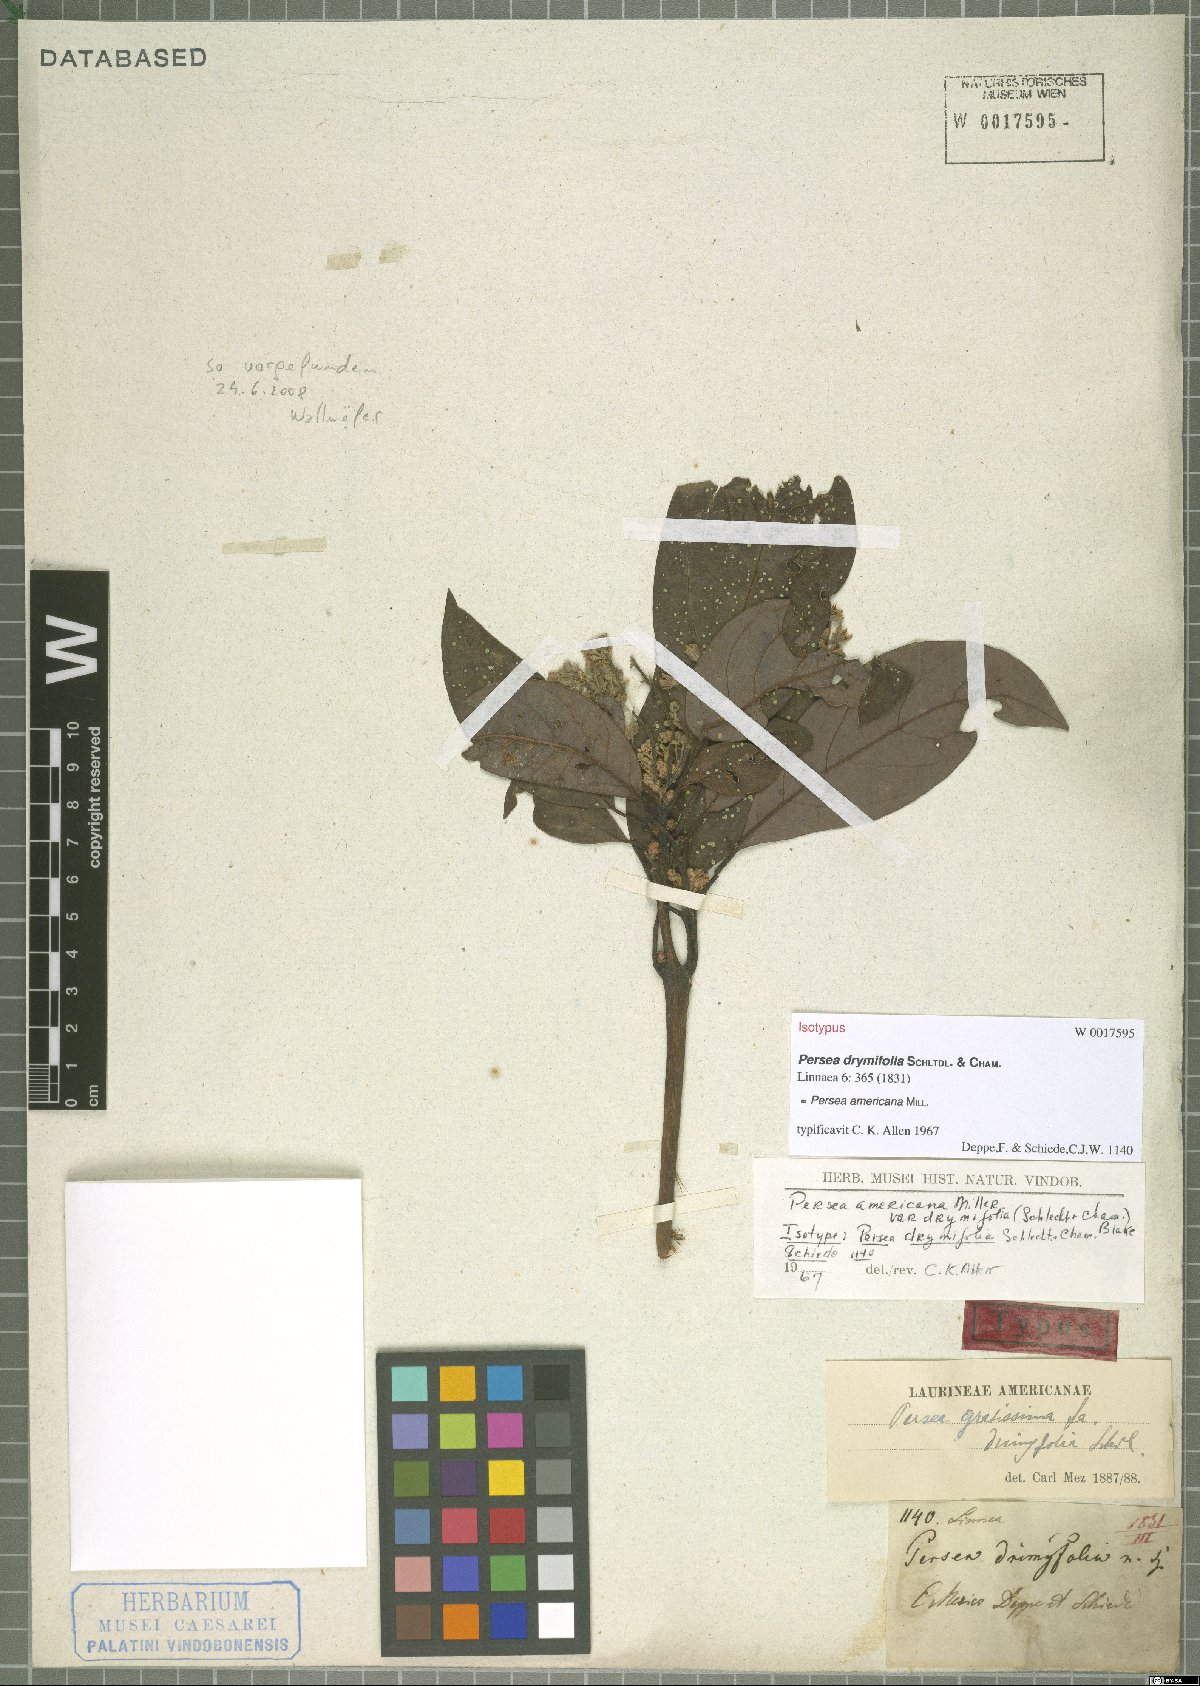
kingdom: Plantae
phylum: Tracheophyta
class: Magnoliopsida
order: Laurales
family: Lauraceae
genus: Persea
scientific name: Persea americana
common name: Avocado
